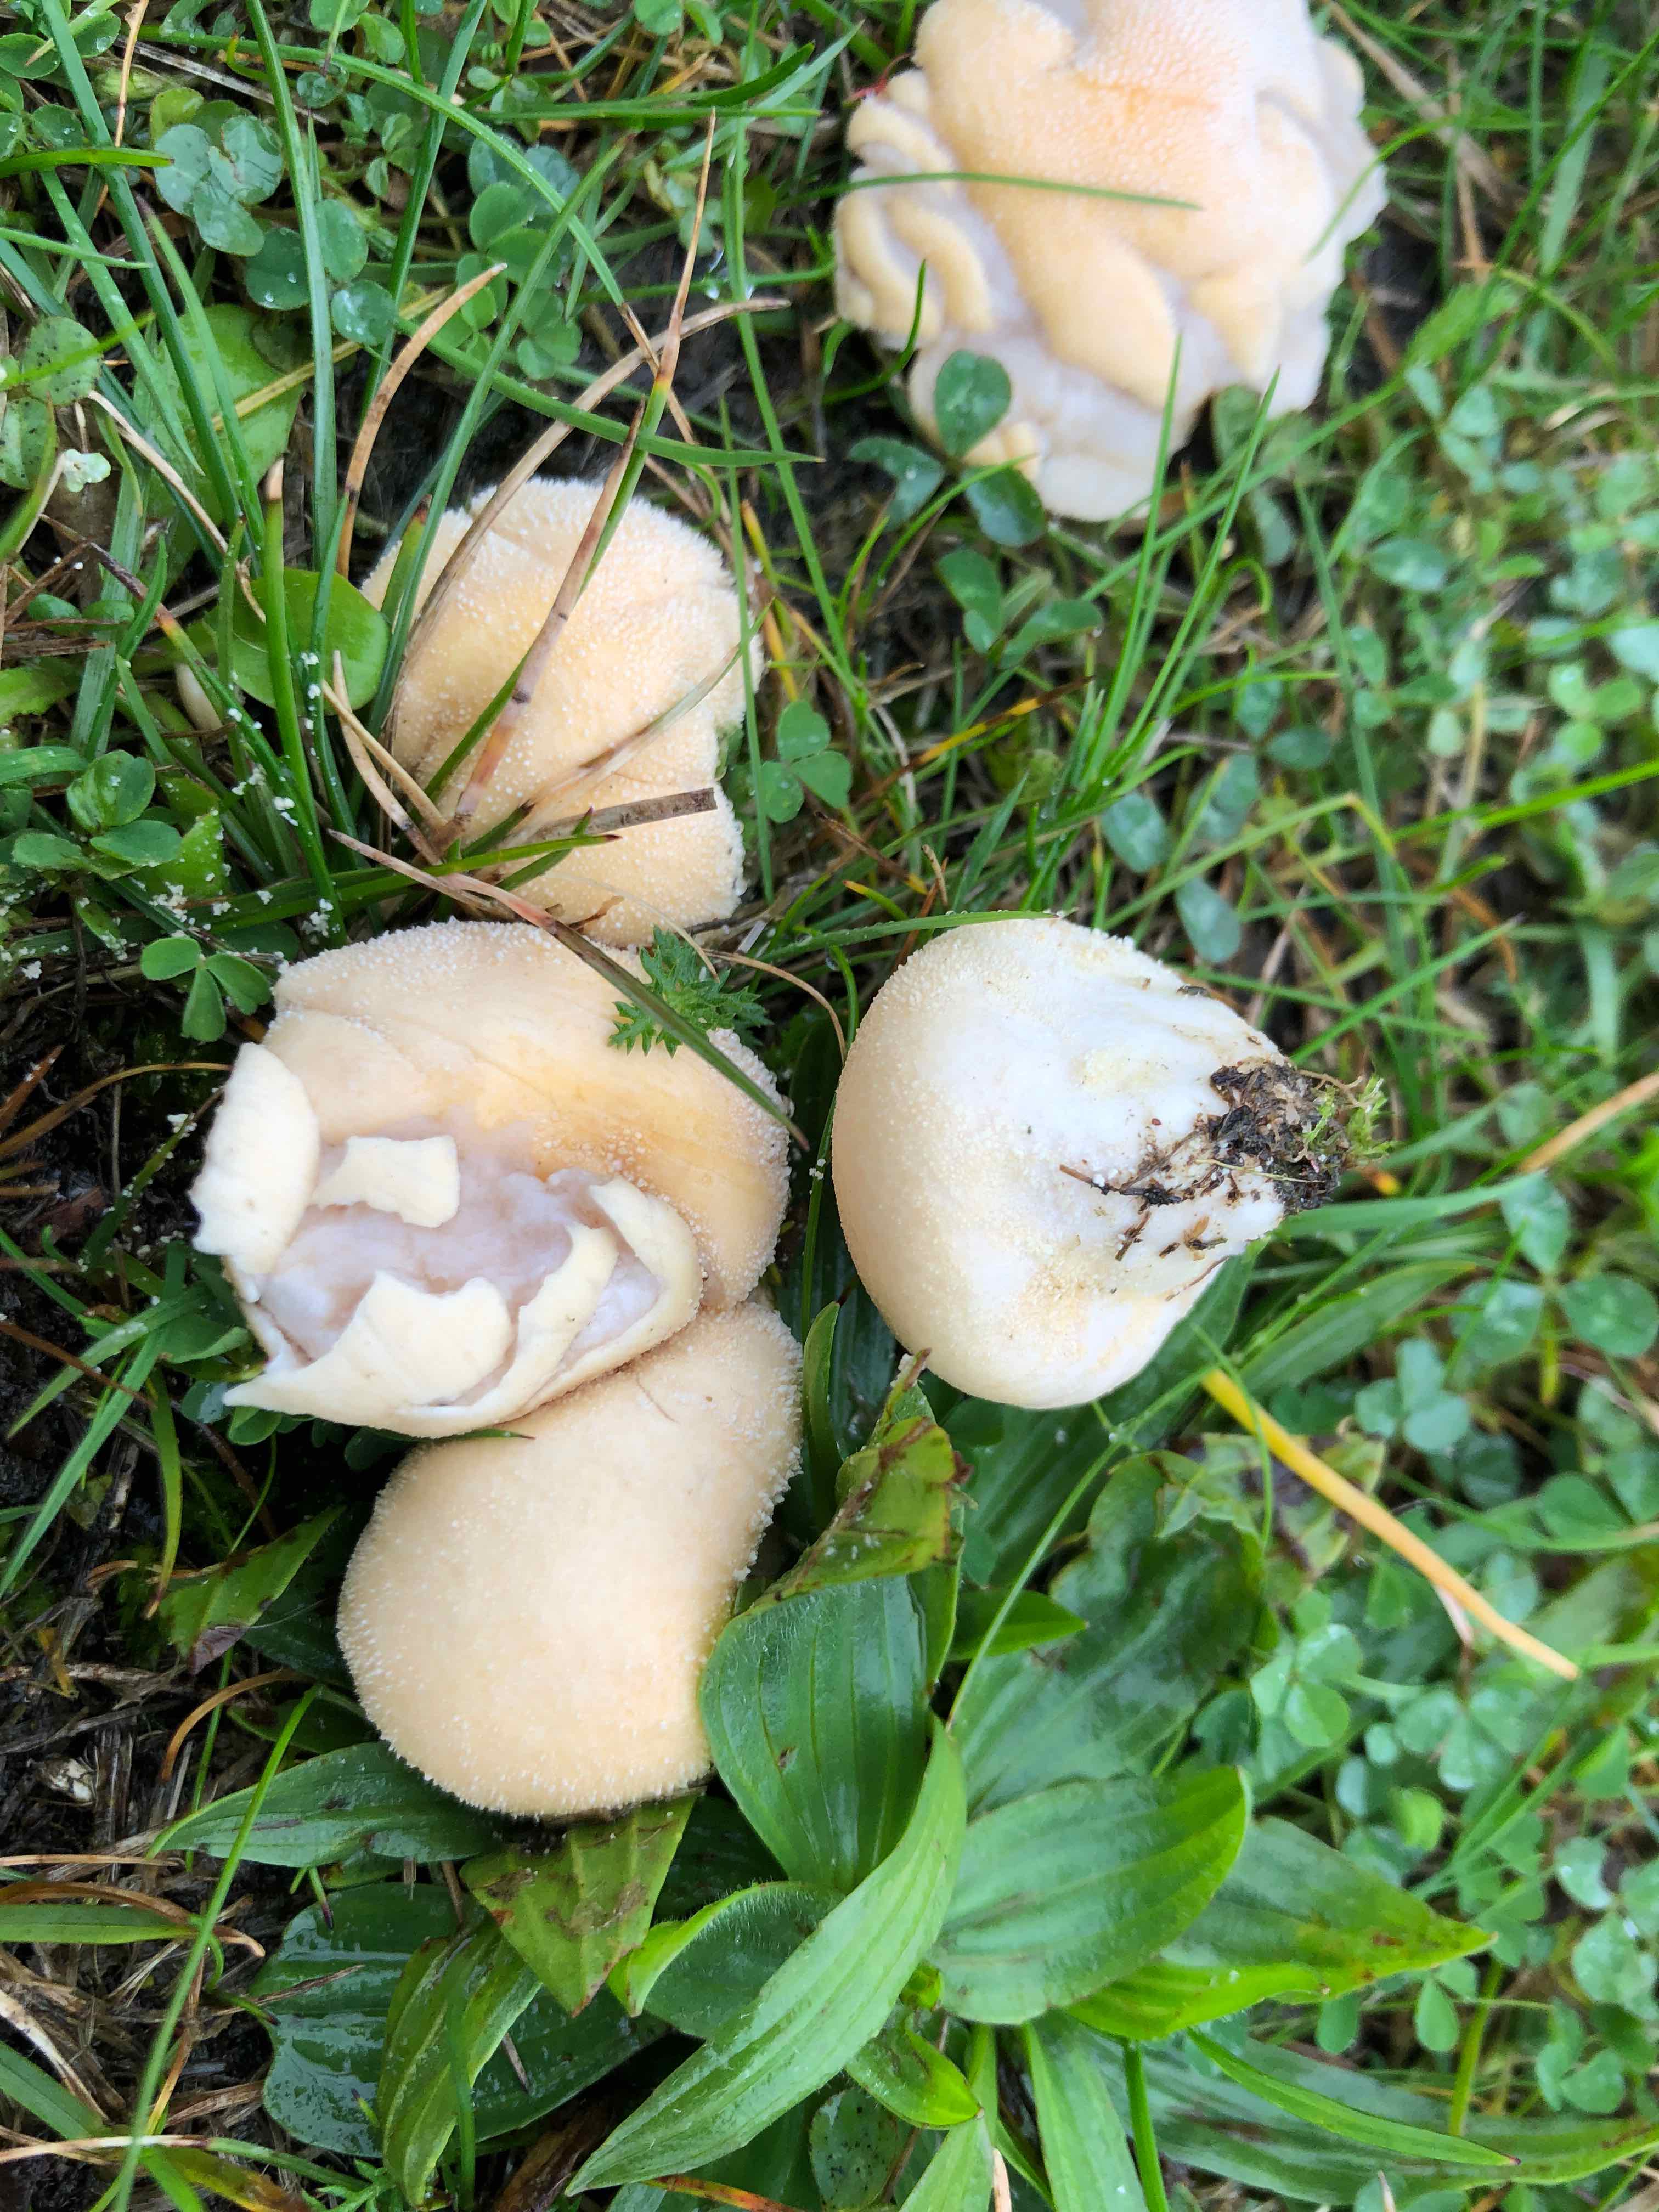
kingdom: Fungi
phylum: Basidiomycota
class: Agaricomycetes
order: Agaricales
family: Lycoperdaceae
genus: Lycoperdon
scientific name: Lycoperdon pratense
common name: flad støvbold
